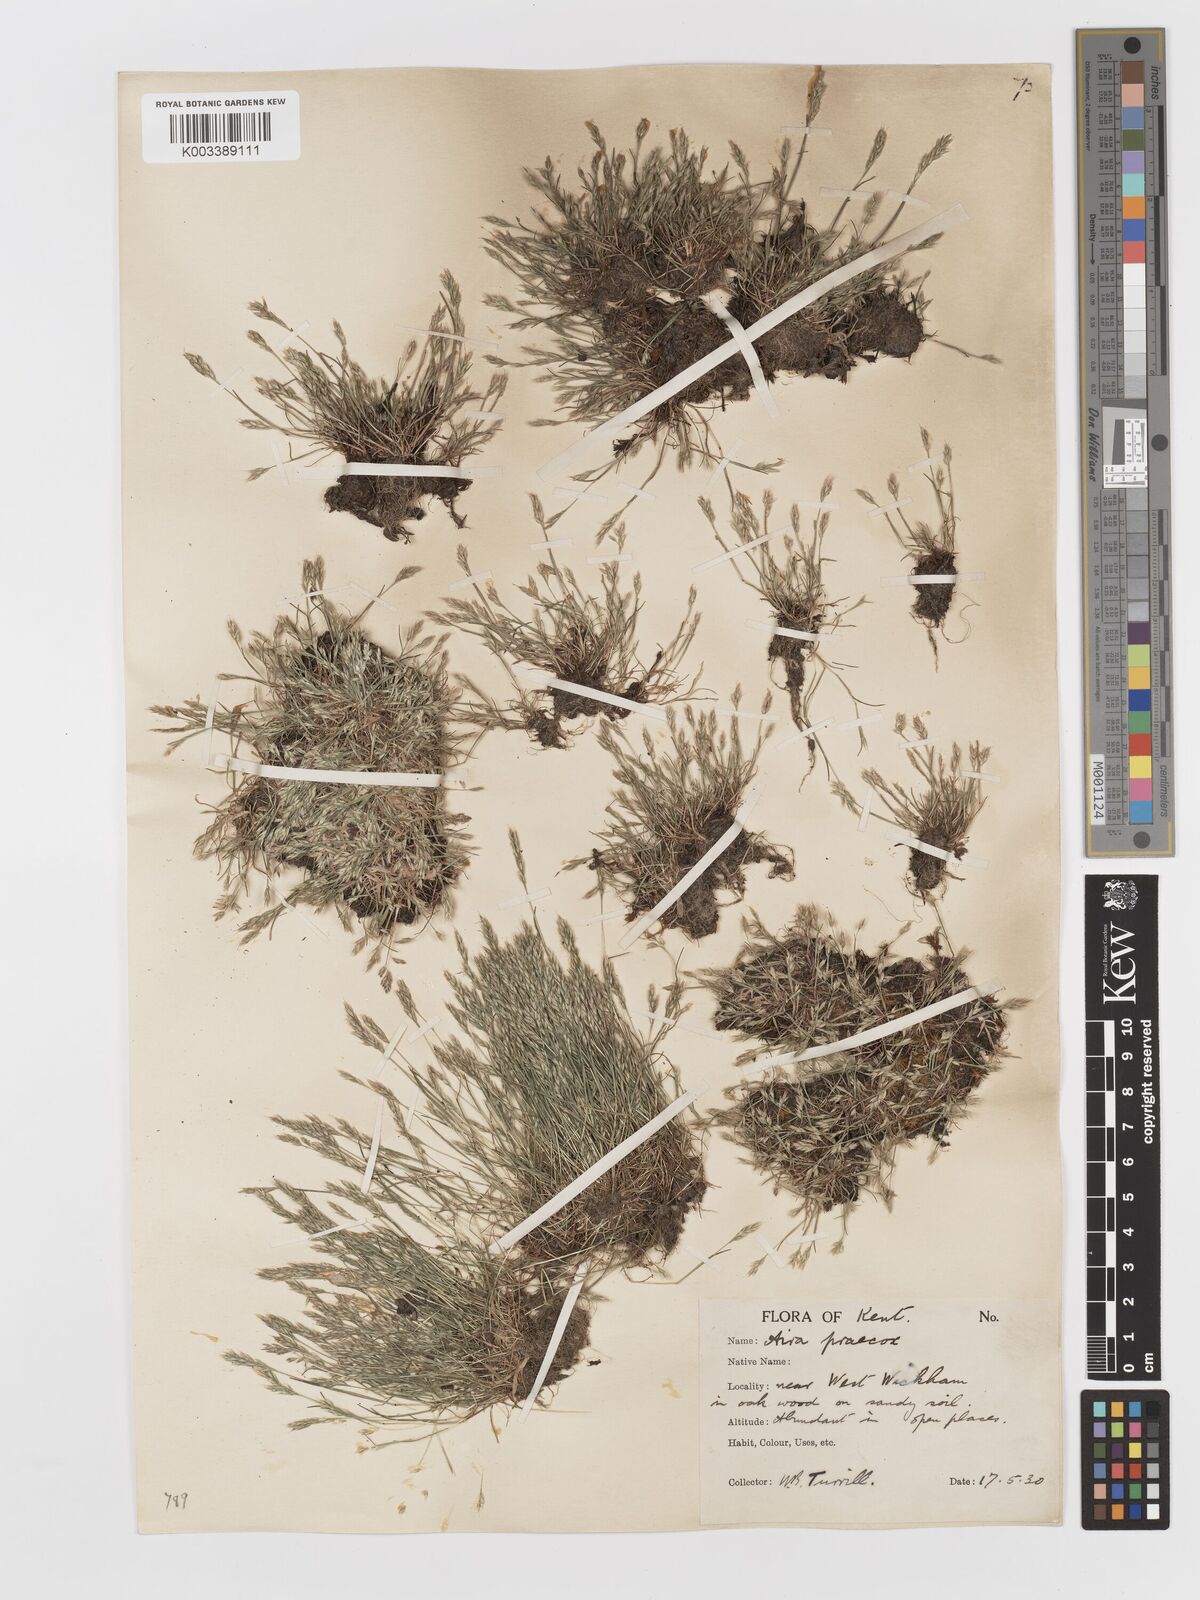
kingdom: Plantae
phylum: Tracheophyta
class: Liliopsida
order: Poales
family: Poaceae
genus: Aira
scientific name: Aira praecox
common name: Early hair-grass
